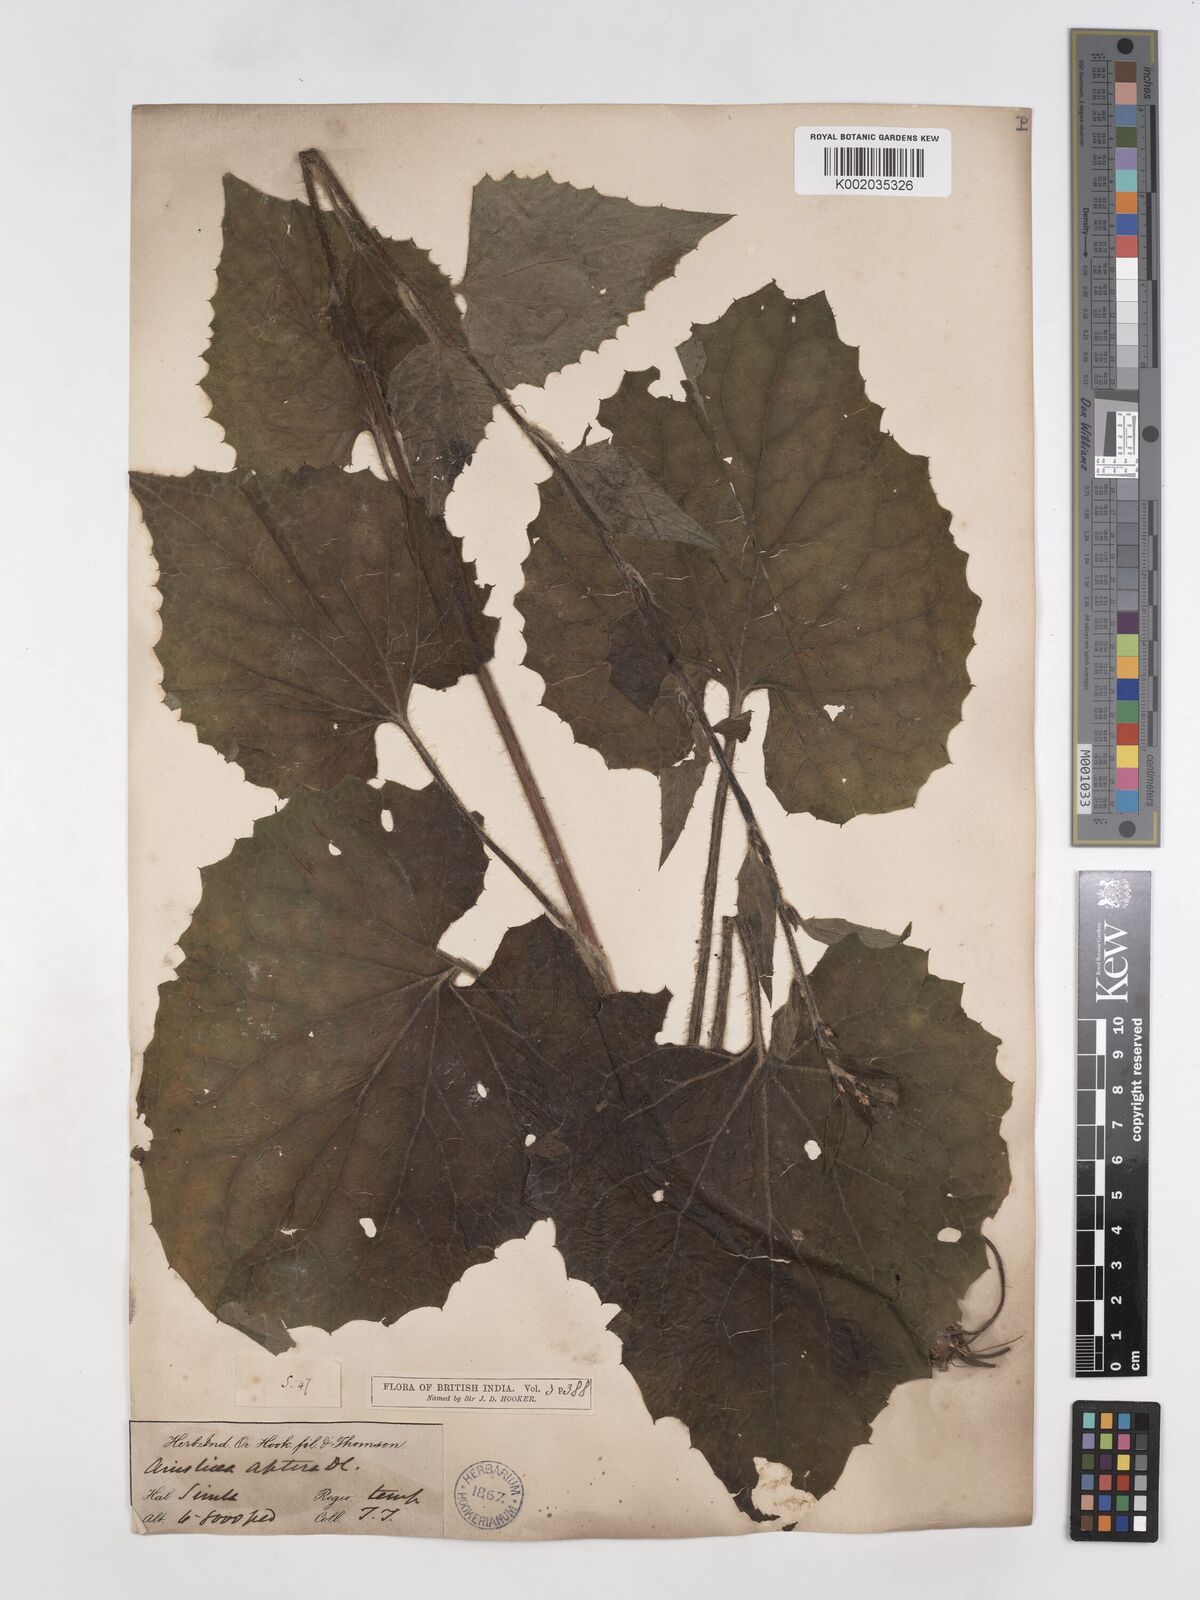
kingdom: Plantae
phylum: Tracheophyta
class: Magnoliopsida
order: Asterales
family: Asteraceae
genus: Ainsliaea
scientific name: Ainsliaea aptera
